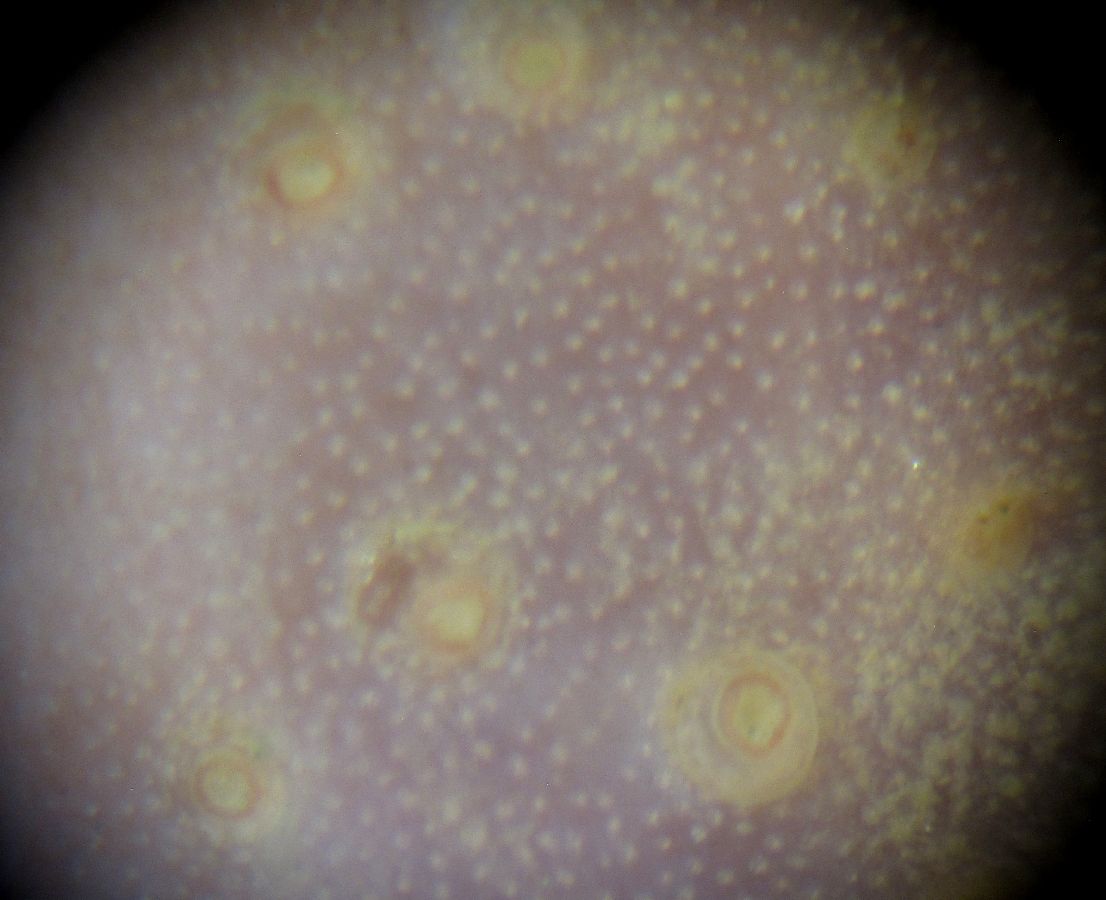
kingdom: Animalia
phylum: Echinodermata
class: Holothuroidea
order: Dendrochirotida
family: Cucumariidae
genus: Ekmania
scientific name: Ekmania barthii
